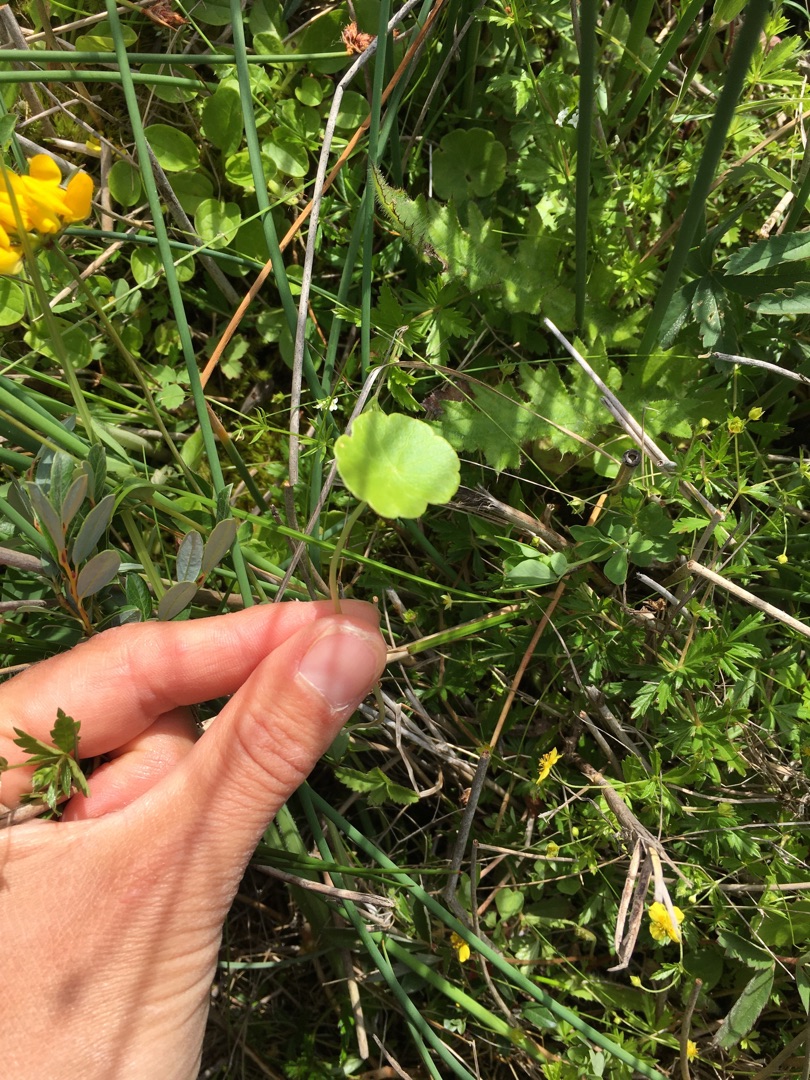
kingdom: Plantae
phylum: Tracheophyta
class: Magnoliopsida
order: Apiales
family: Araliaceae
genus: Hydrocotyle
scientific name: Hydrocotyle vulgaris
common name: Vandnavle
